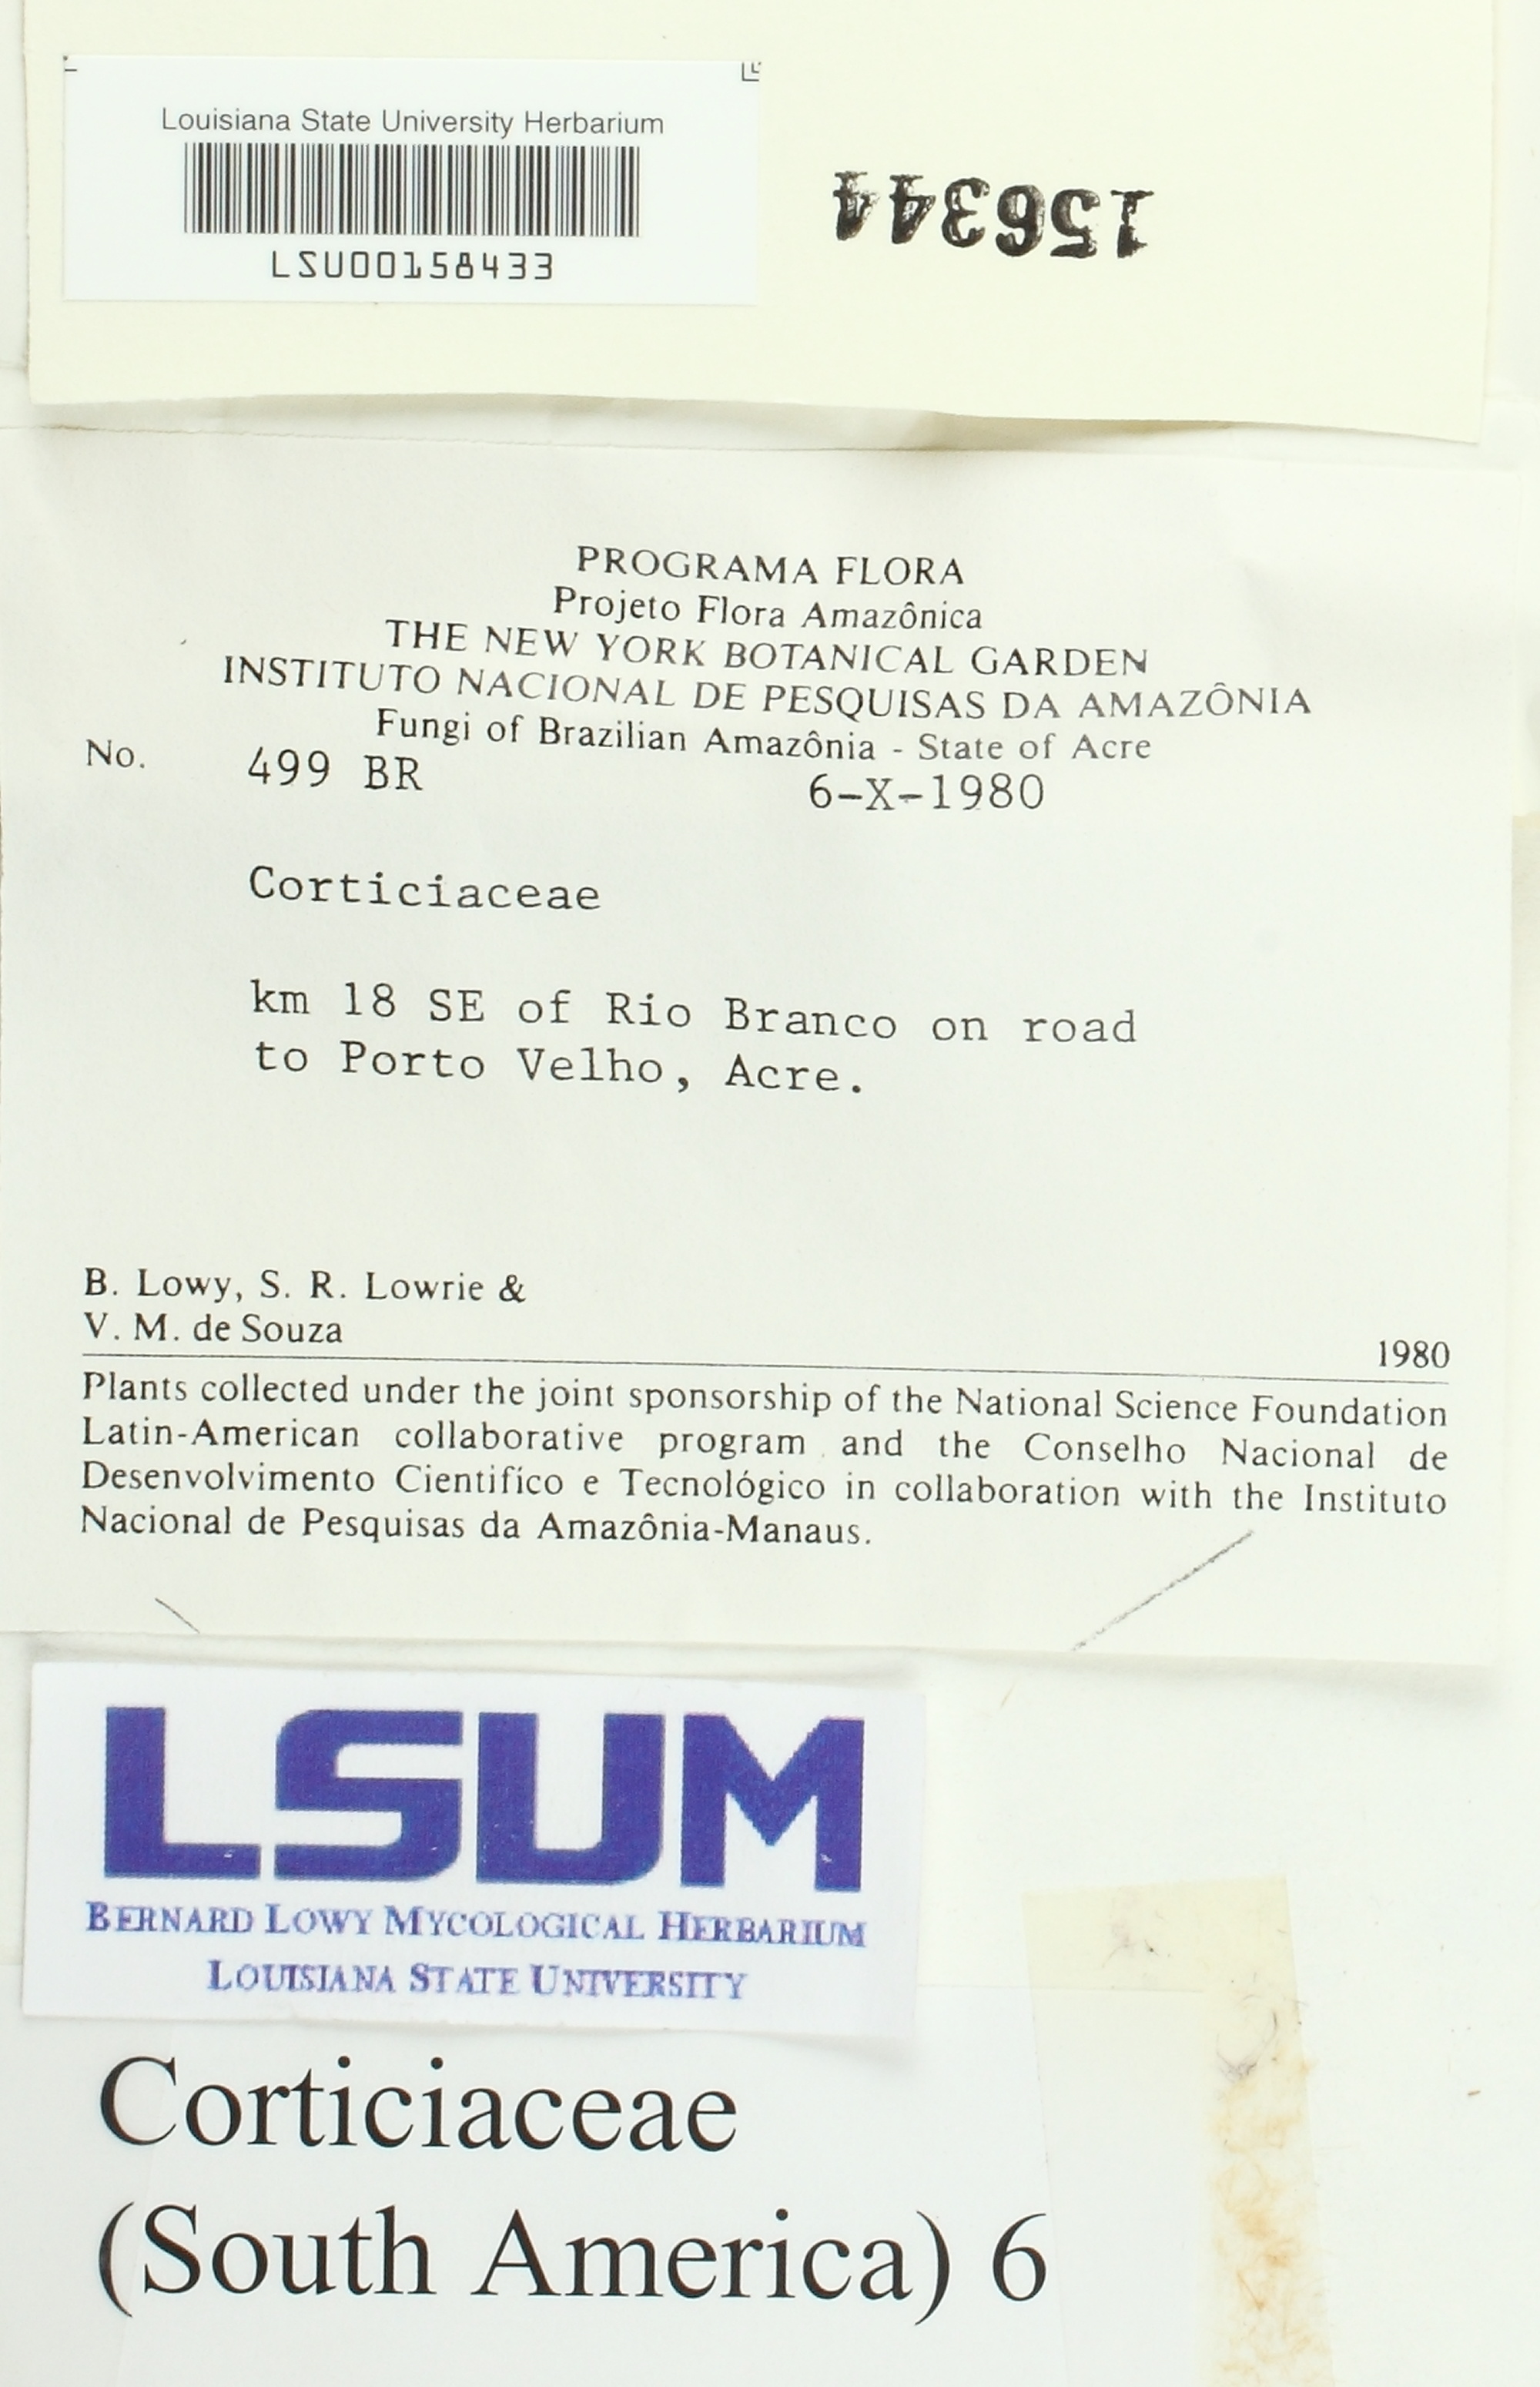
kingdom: Fungi
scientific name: Fungi
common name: Fungi
